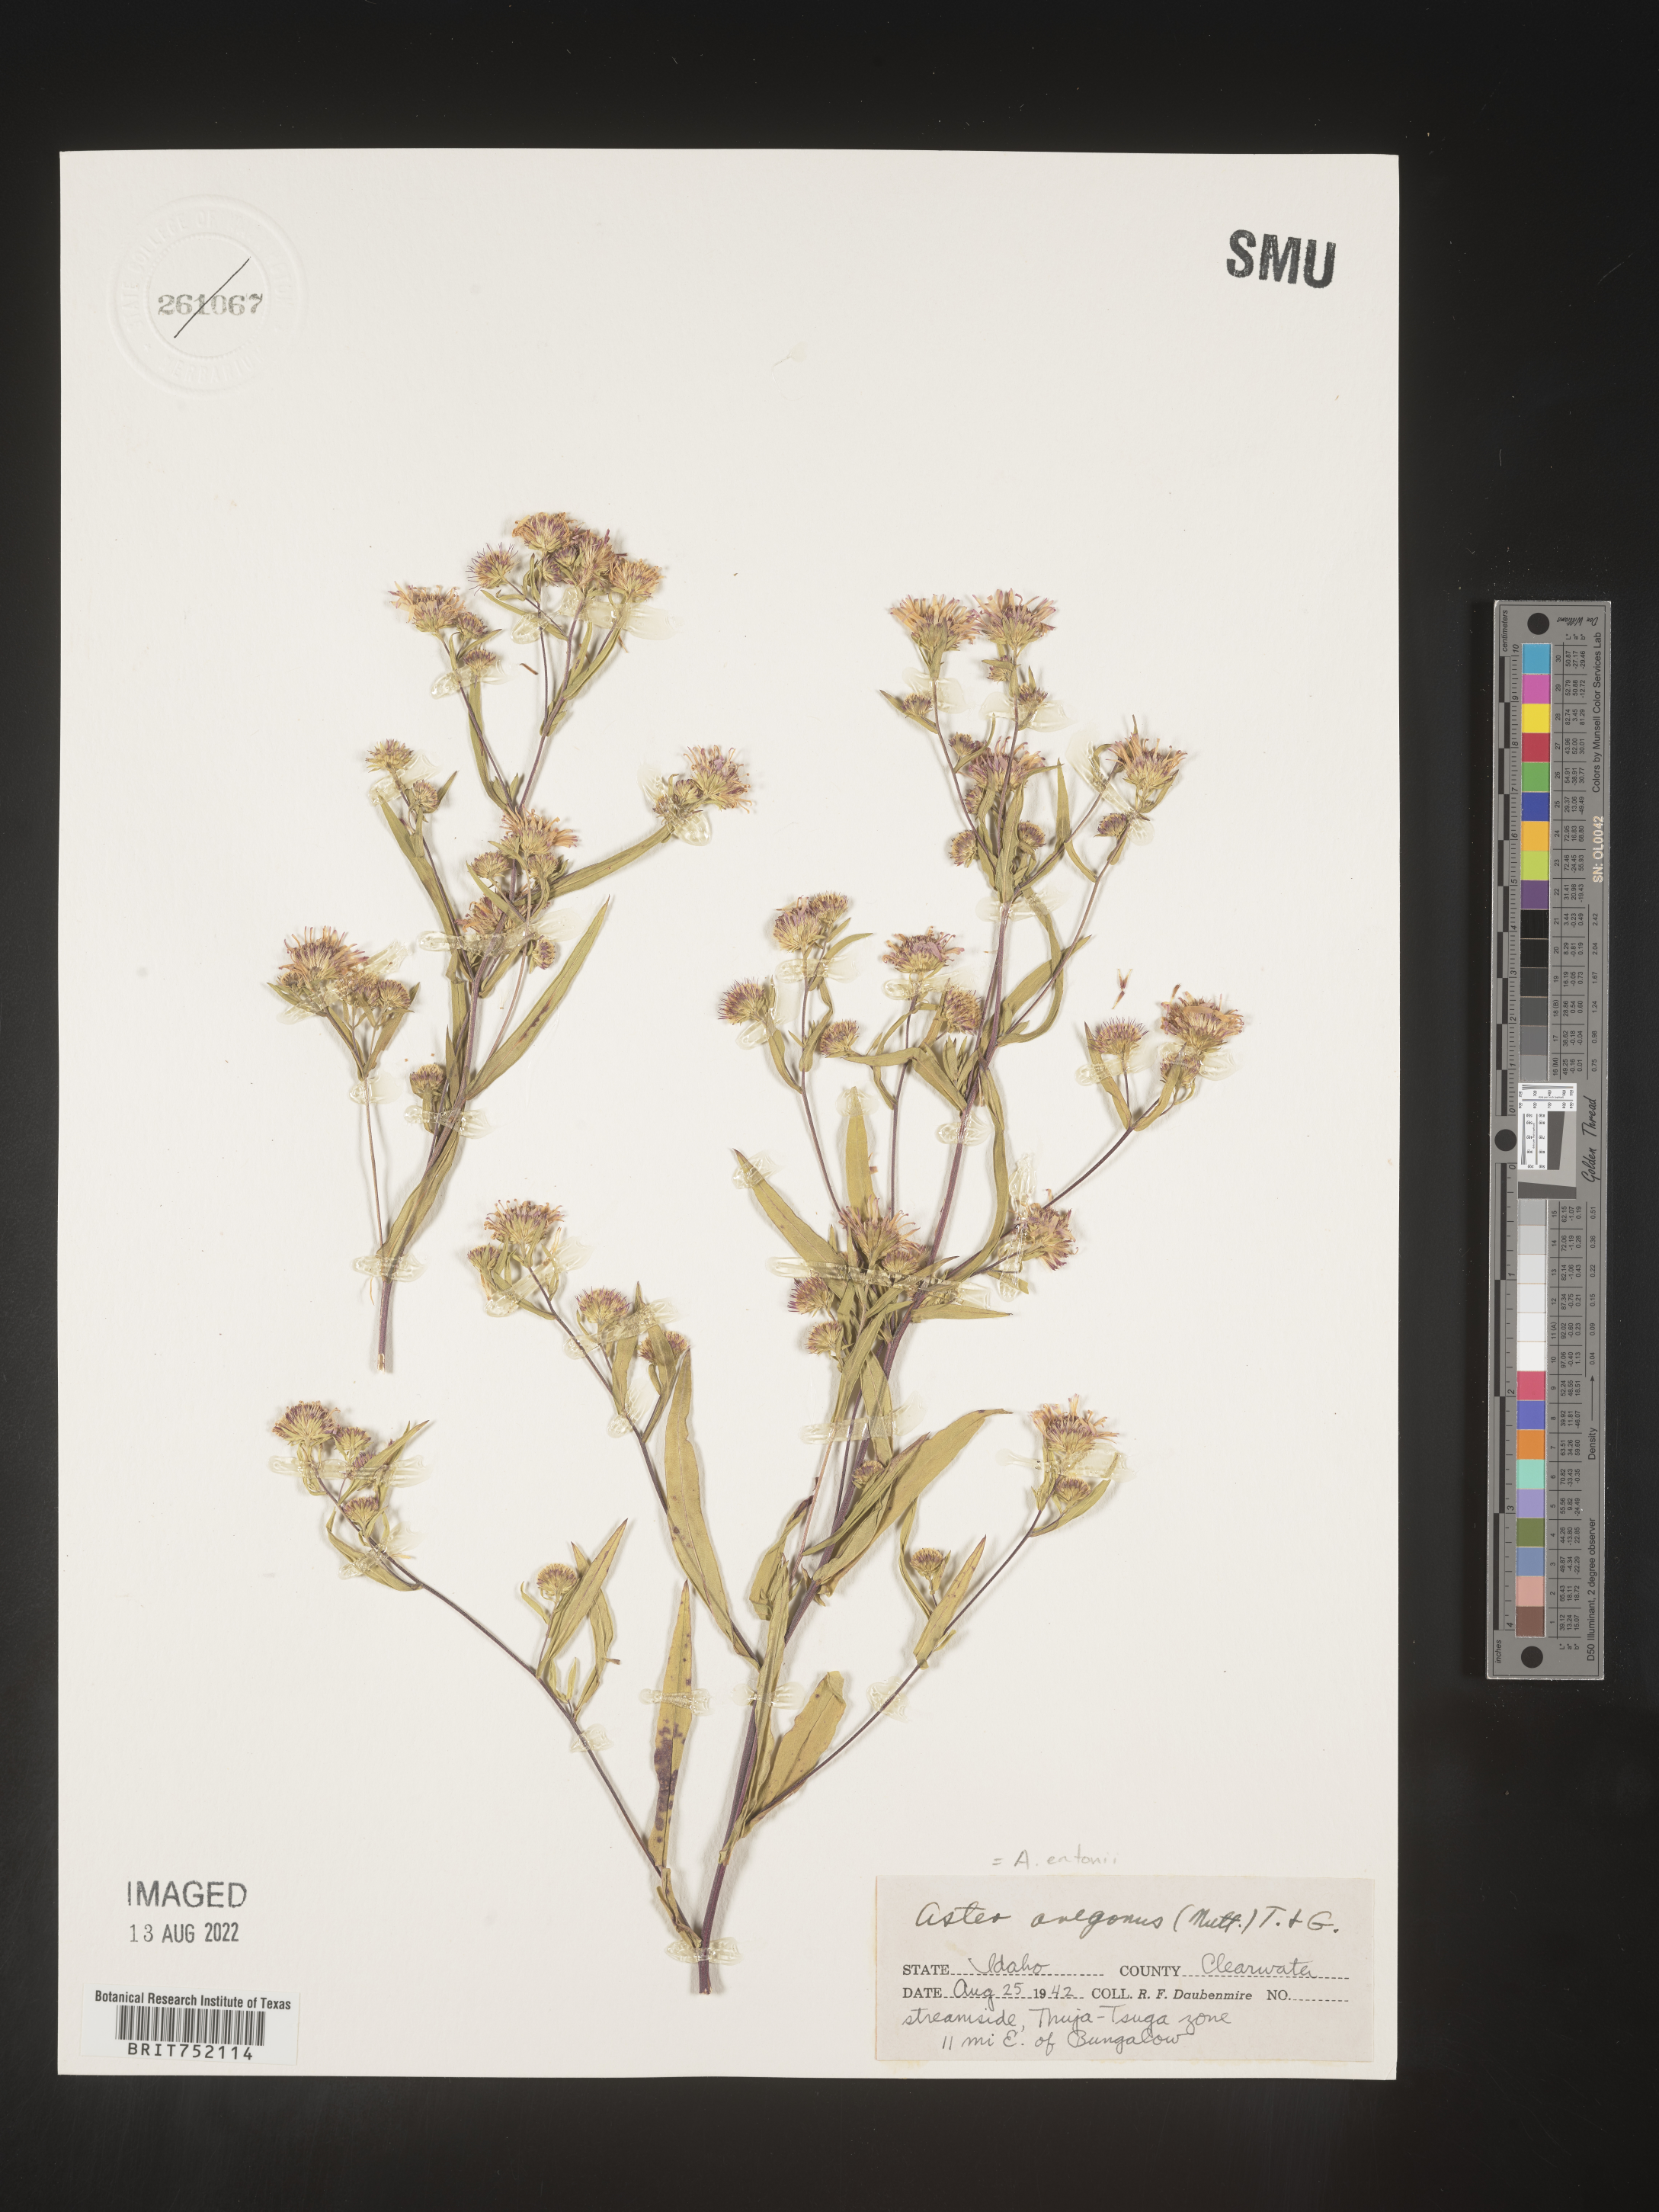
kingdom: Plantae
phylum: Tracheophyta
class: Magnoliopsida
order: Asterales
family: Asteraceae
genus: Symphyotrichum
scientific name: Symphyotrichum bracteolatum
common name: Eaton's aster
